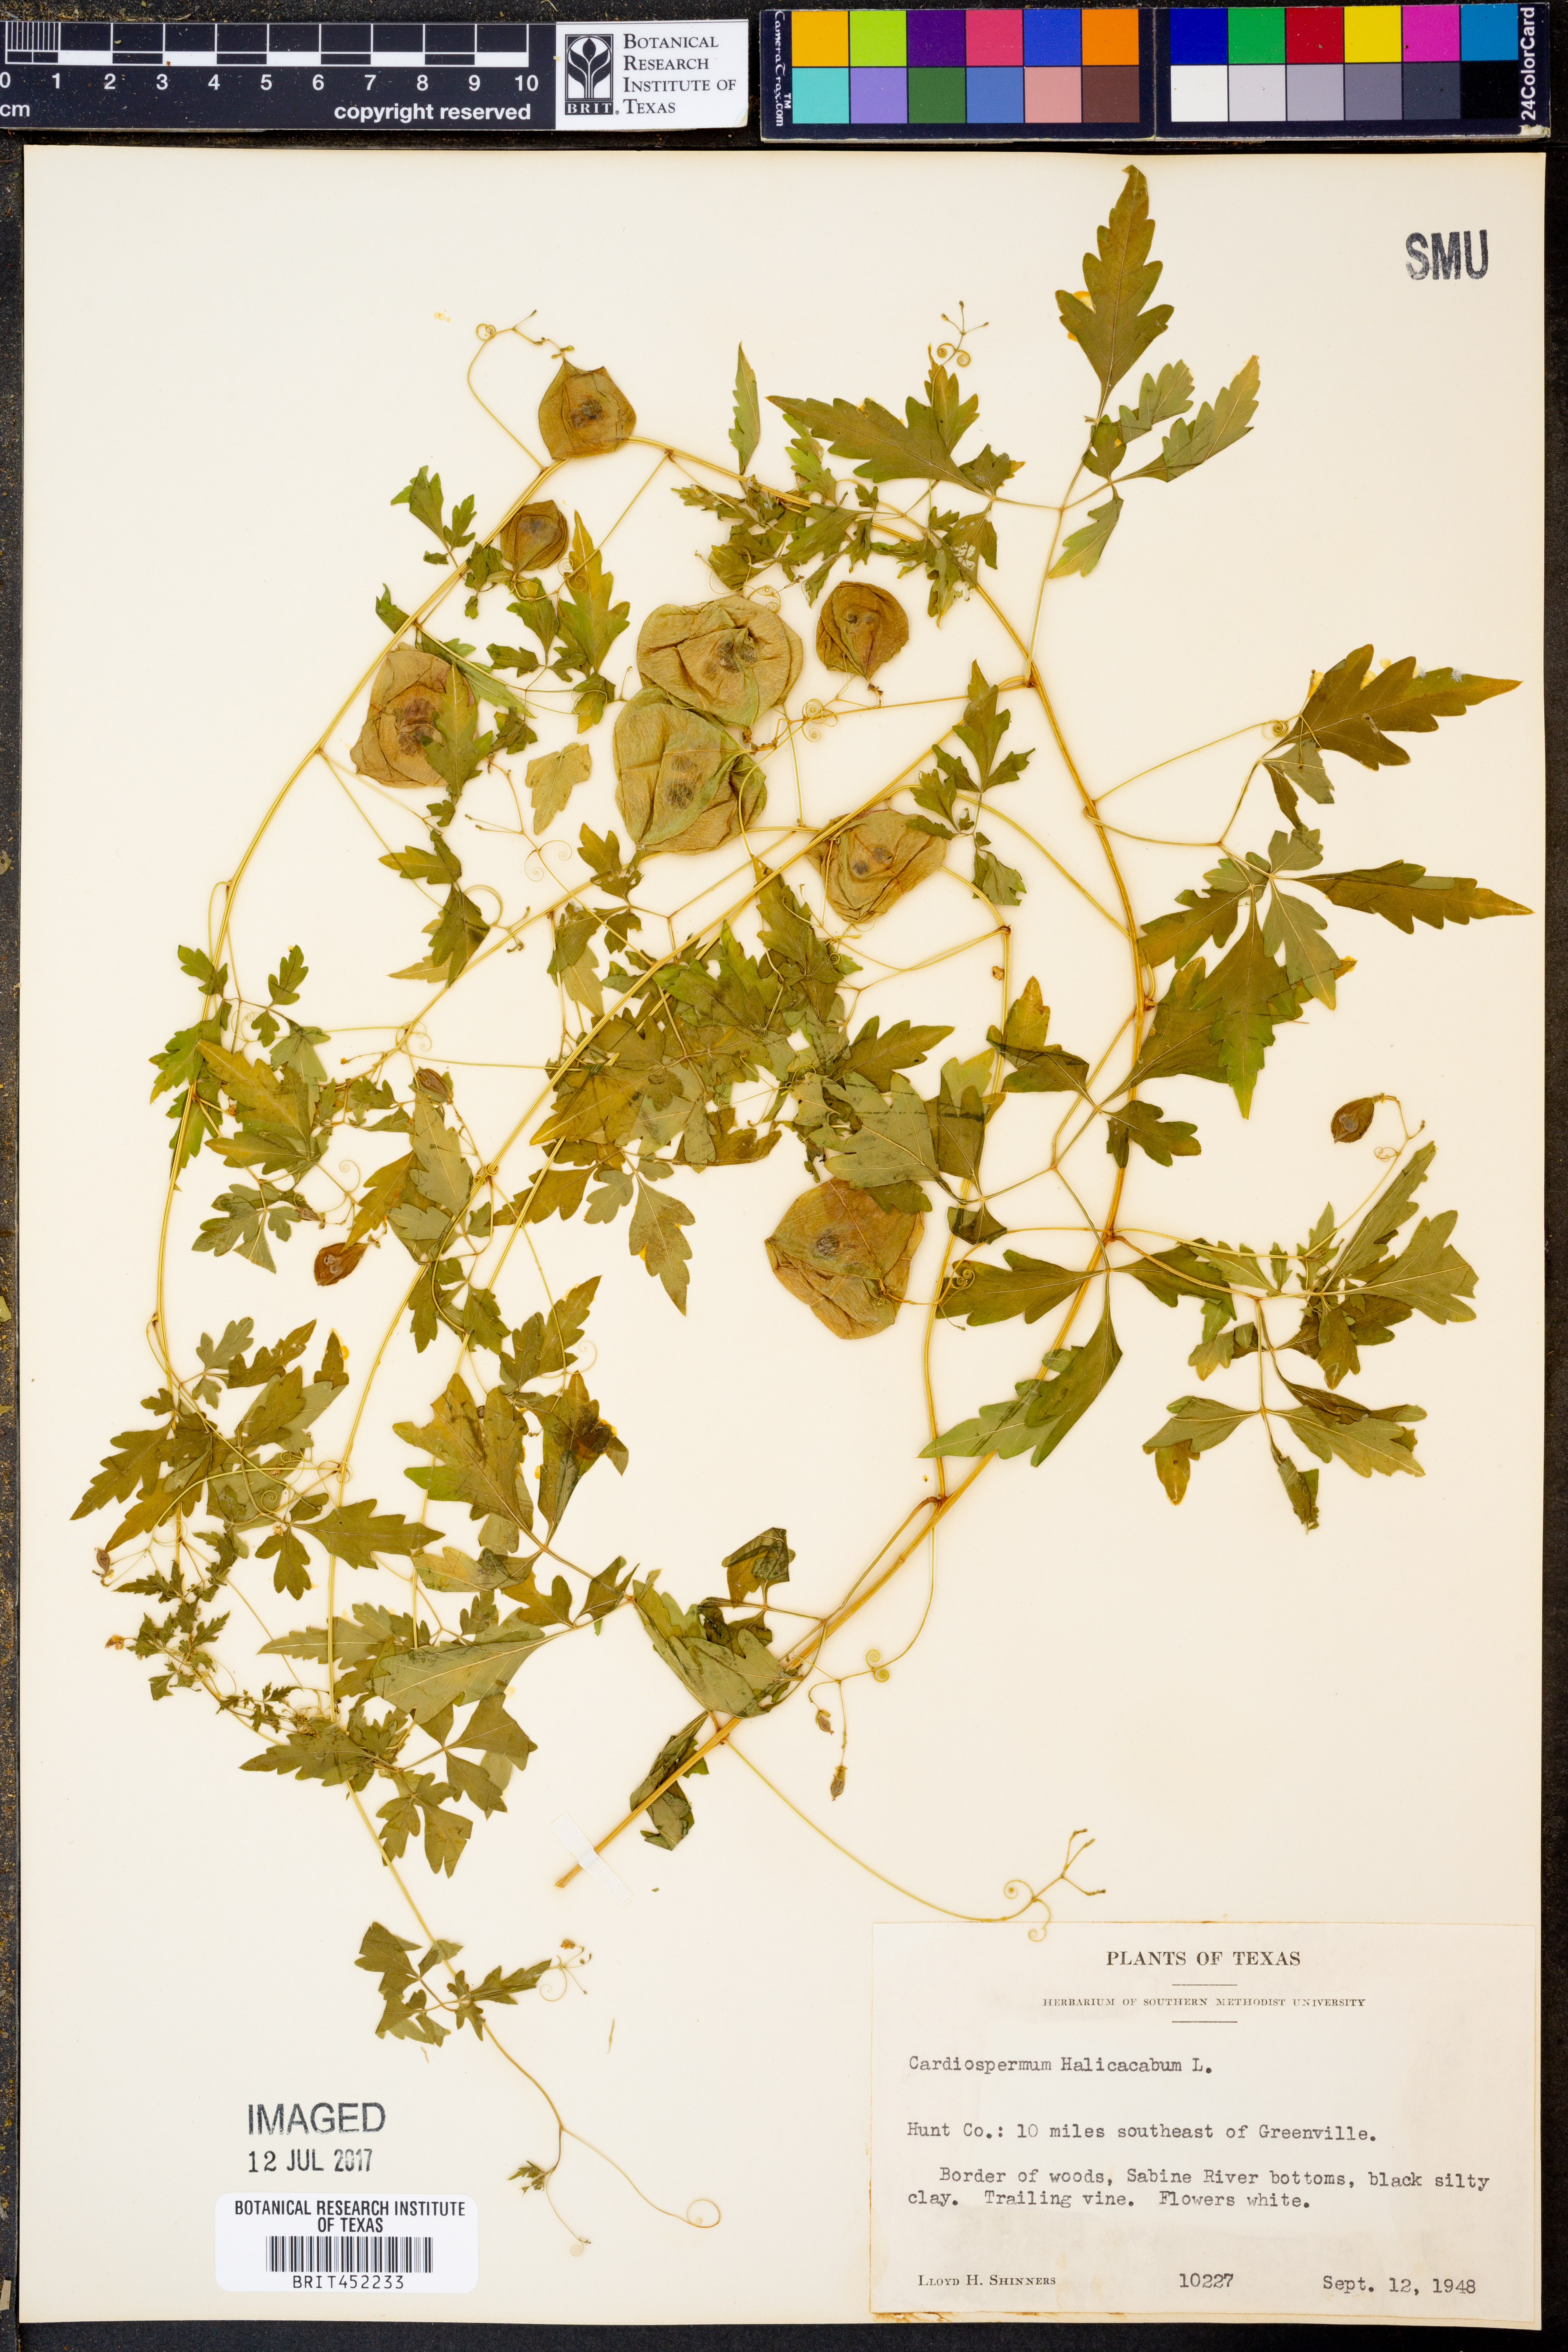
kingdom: Plantae
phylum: Tracheophyta
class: Magnoliopsida
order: Sapindales
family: Sapindaceae
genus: Cardiospermum
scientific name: Cardiospermum halicacabum
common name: Balloon vine
